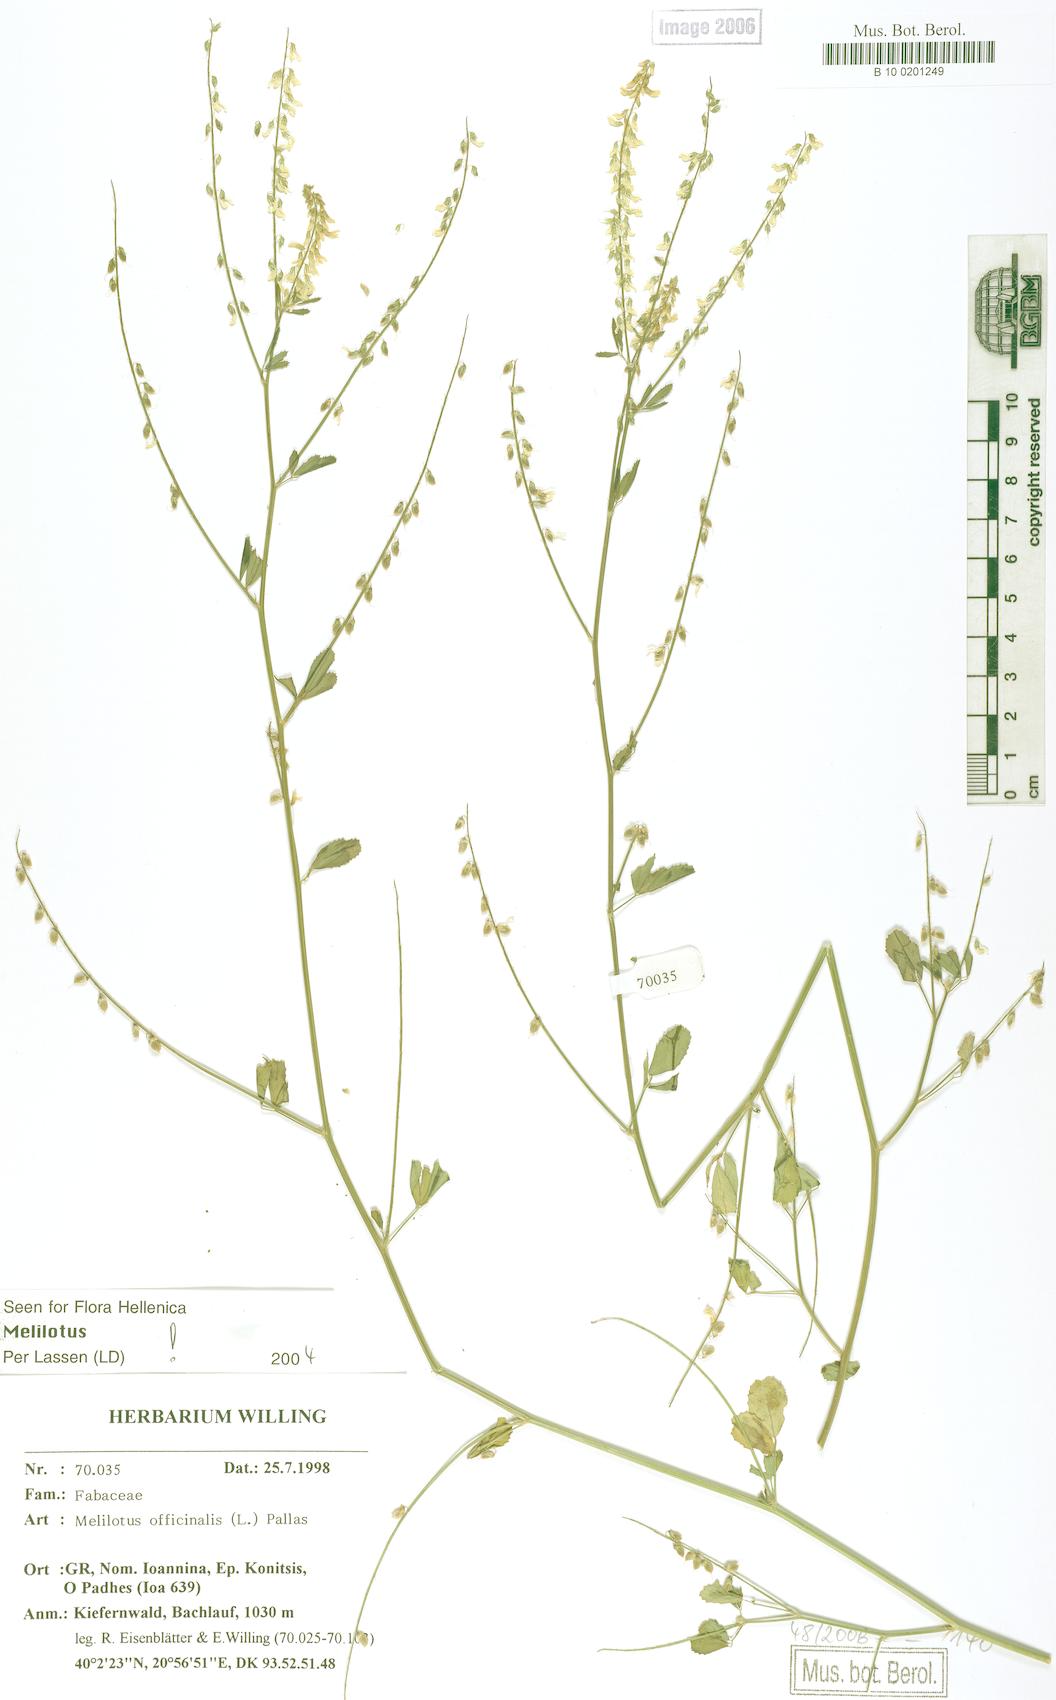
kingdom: Plantae
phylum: Tracheophyta
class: Magnoliopsida
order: Fabales
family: Fabaceae
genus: Melilotus
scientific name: Melilotus officinalis
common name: Sweetclover
